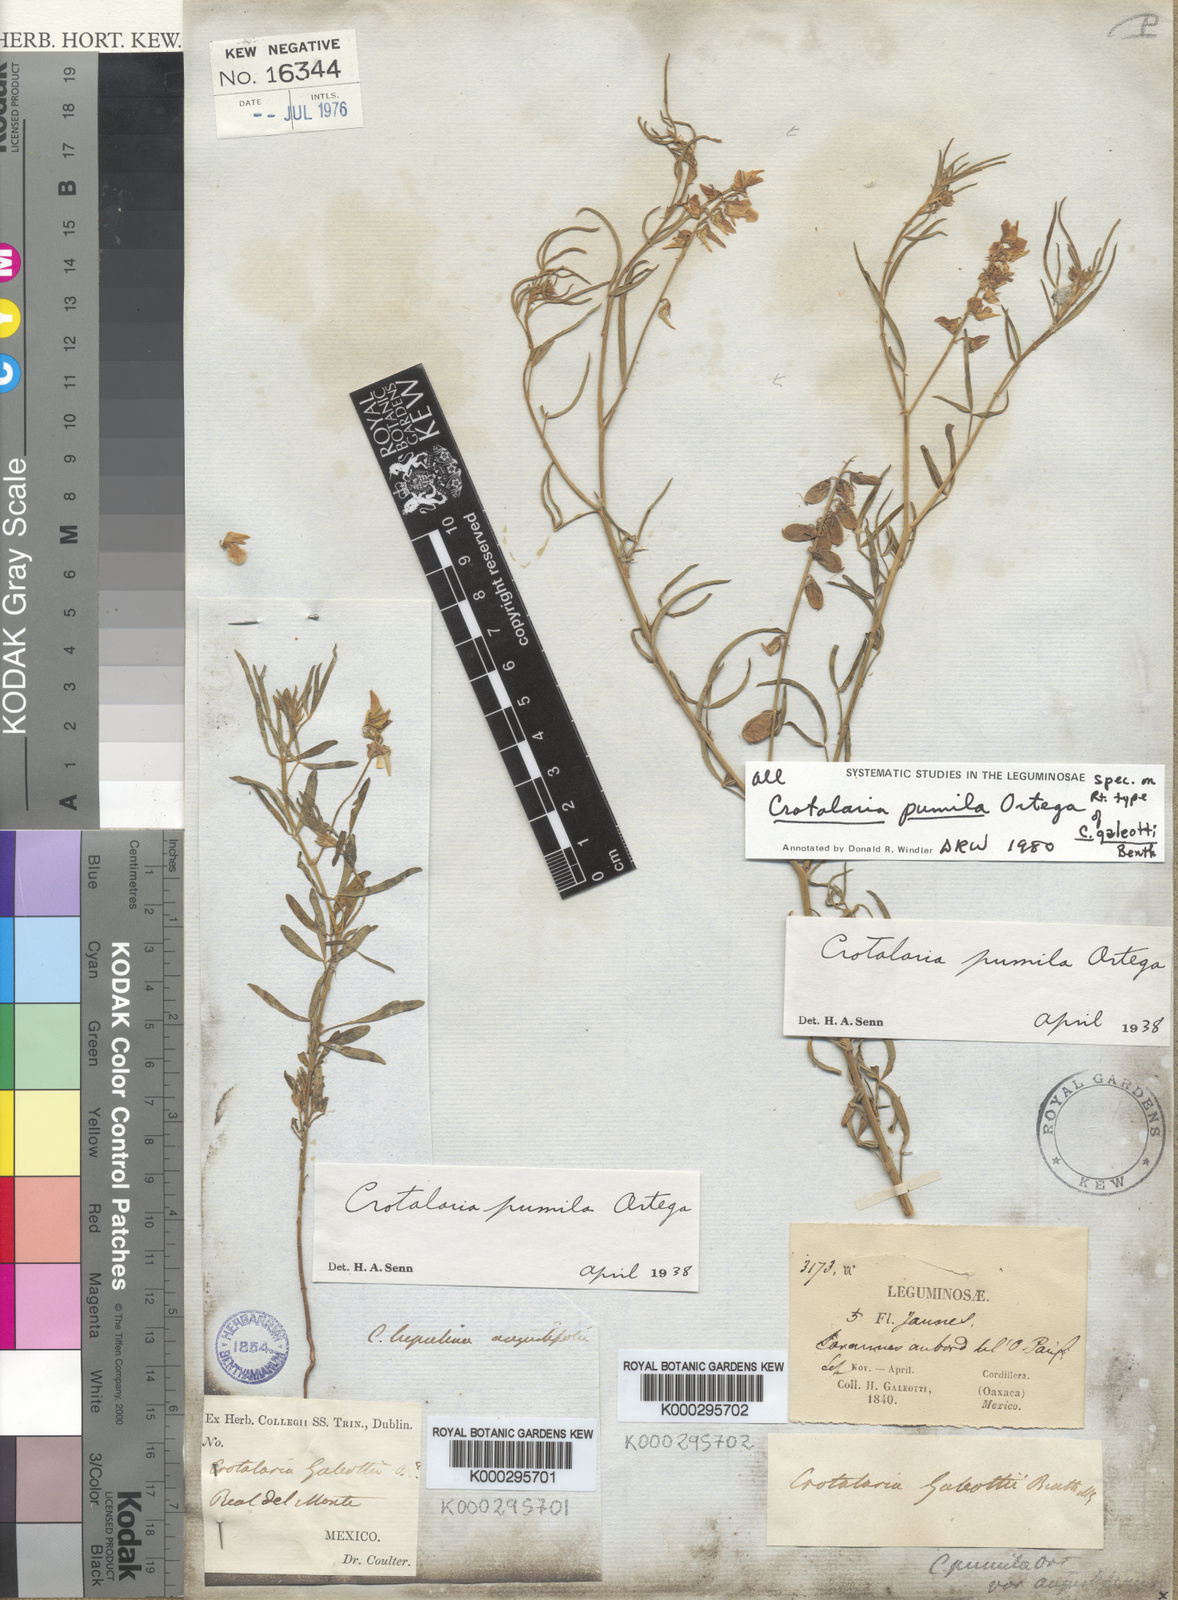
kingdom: Plantae
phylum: Tracheophyta
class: Magnoliopsida
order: Fabales
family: Fabaceae
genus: Crotalaria
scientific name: Crotalaria pumila
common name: Low rattlebox
